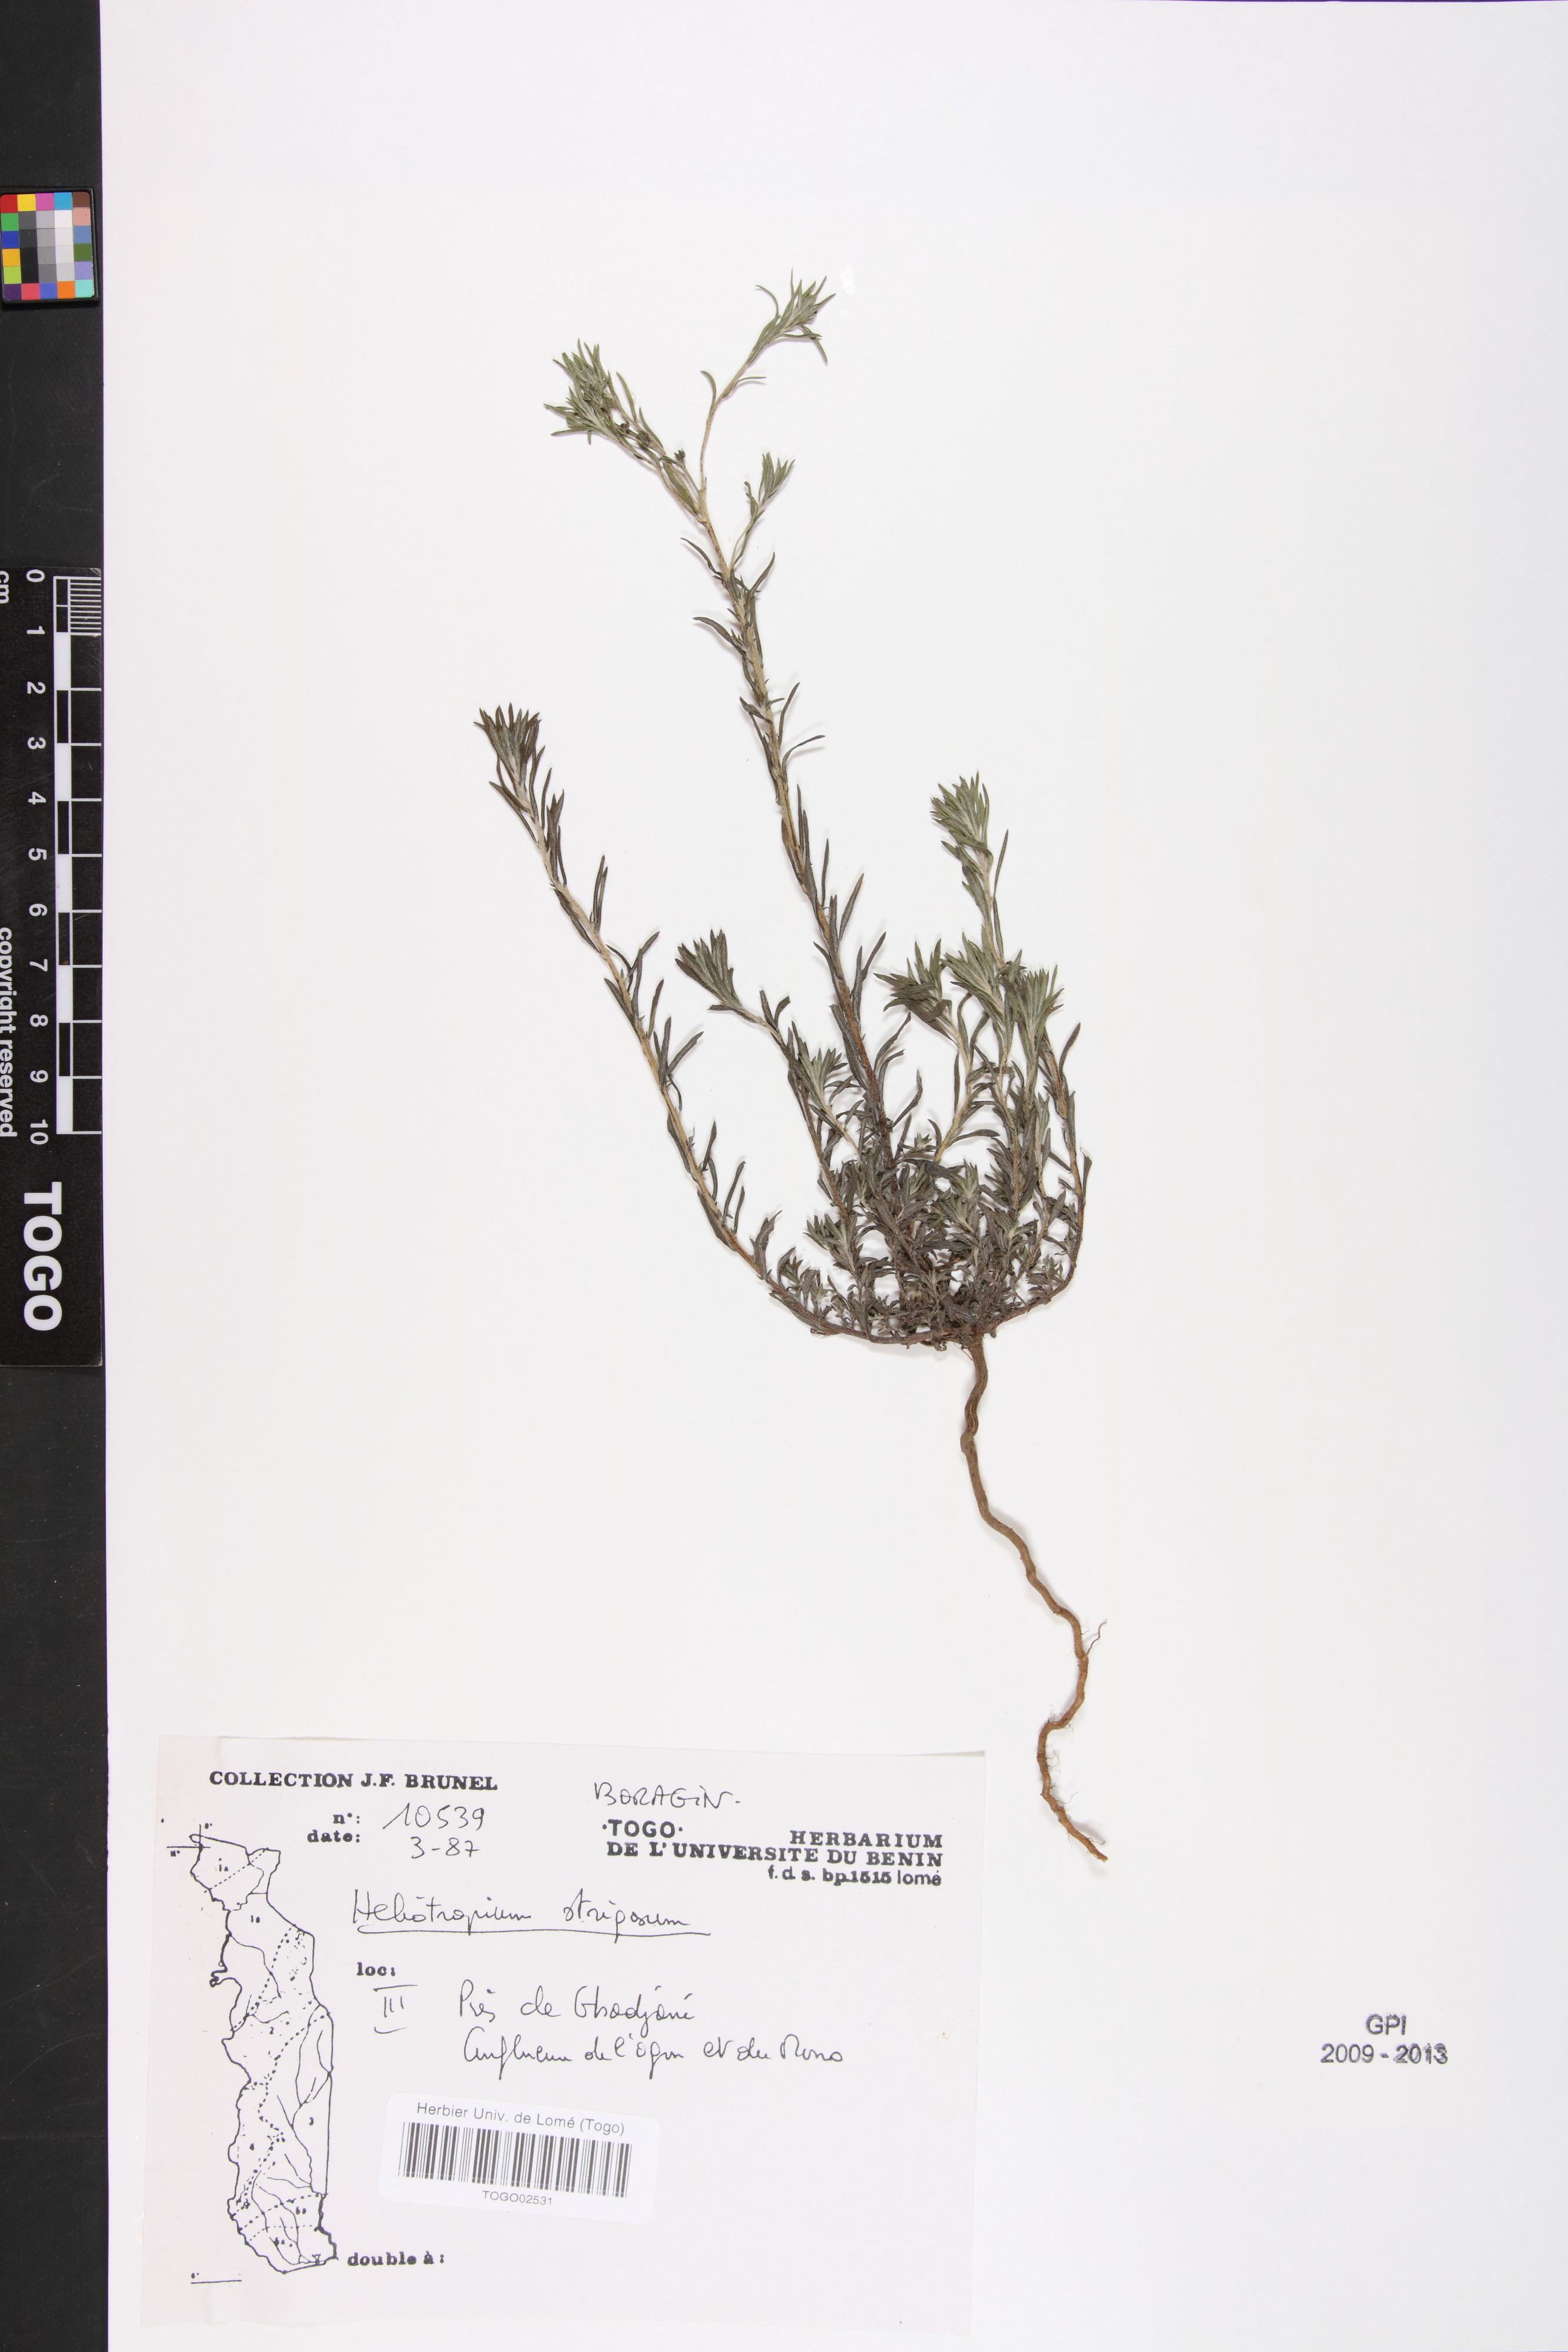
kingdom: Plantae
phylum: Tracheophyta
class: Magnoliopsida
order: Boraginales
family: Heliotropiaceae
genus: Euploca
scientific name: Euploca strigosa
